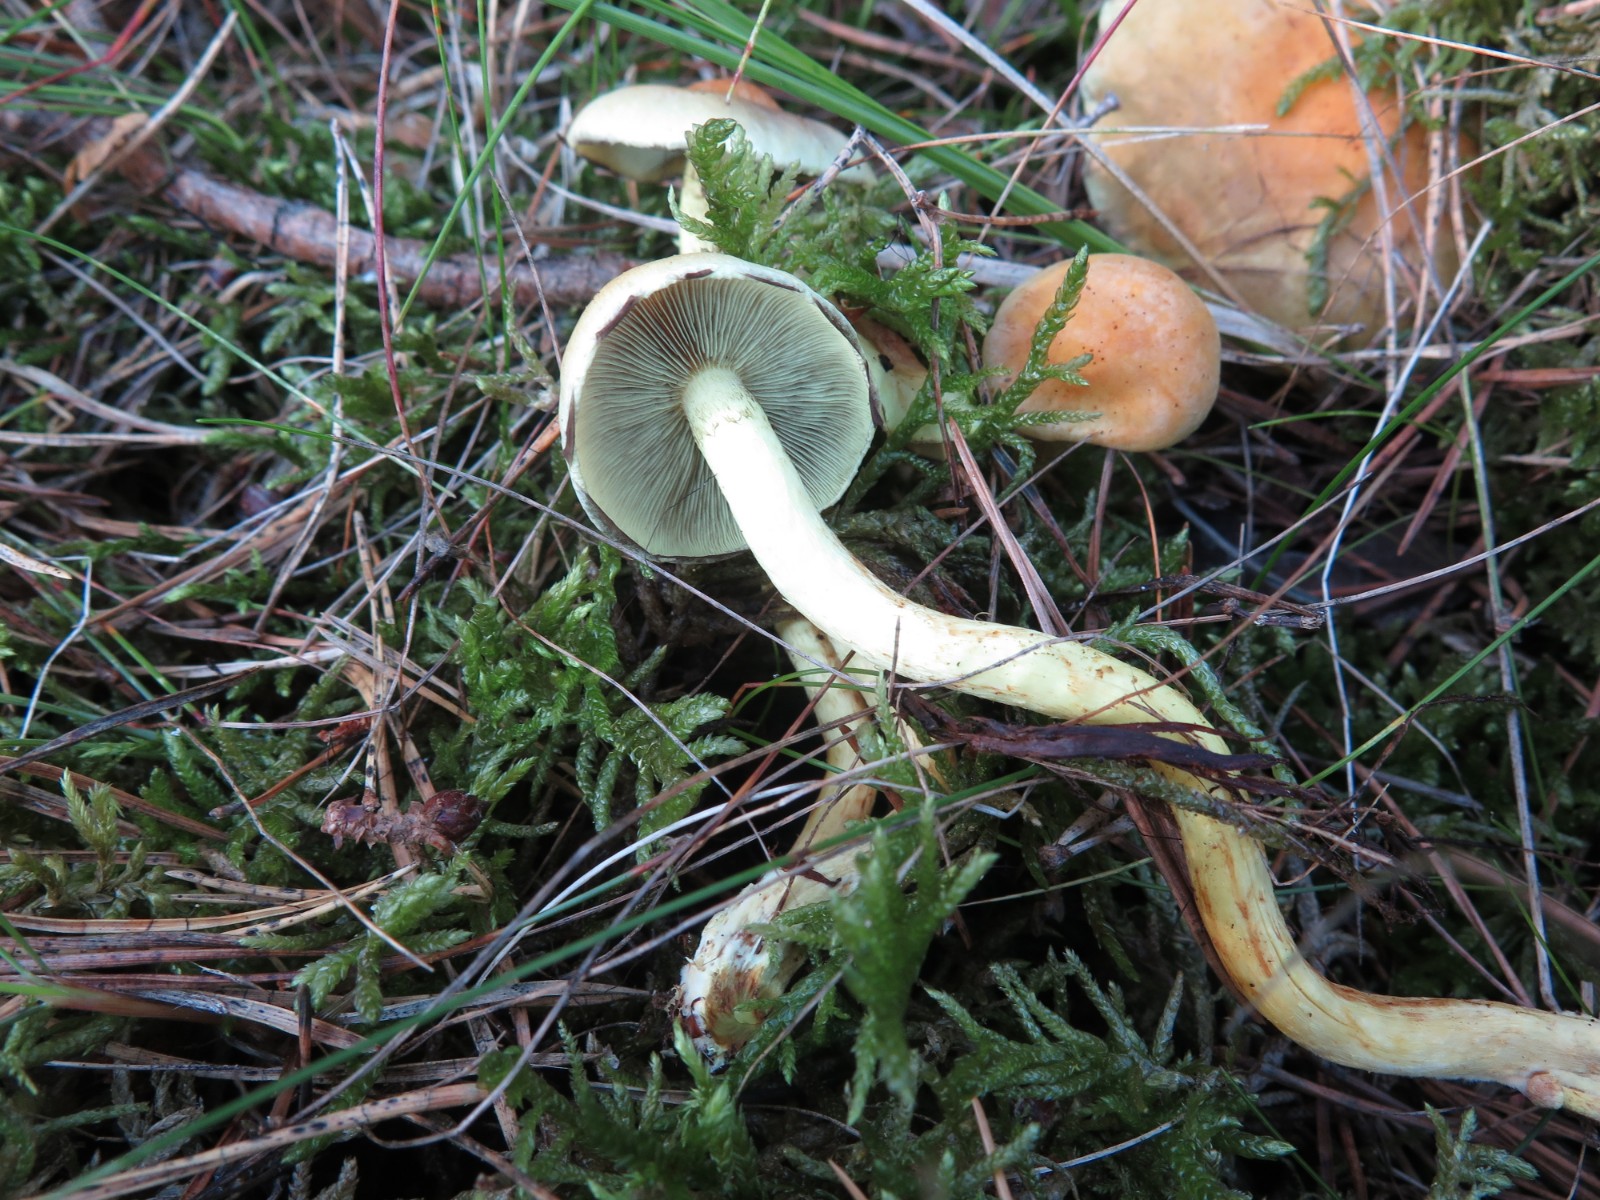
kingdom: Fungi
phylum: Basidiomycota
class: Agaricomycetes
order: Agaricales
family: Strophariaceae
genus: Hypholoma
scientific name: Hypholoma fasciculare
